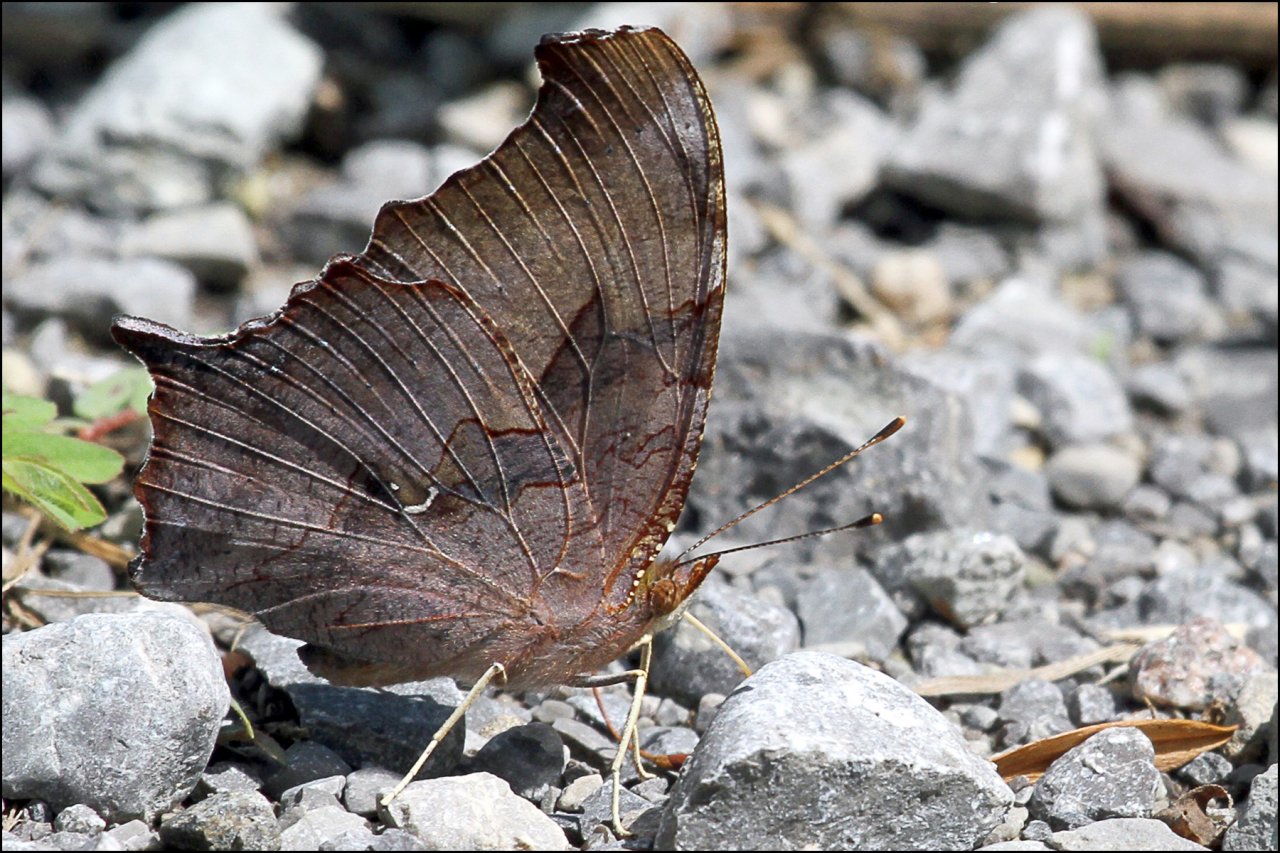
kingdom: Animalia
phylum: Arthropoda
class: Insecta
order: Lepidoptera
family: Nymphalidae
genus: Polygonia
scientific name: Polygonia interrogationis
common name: Question Mark
